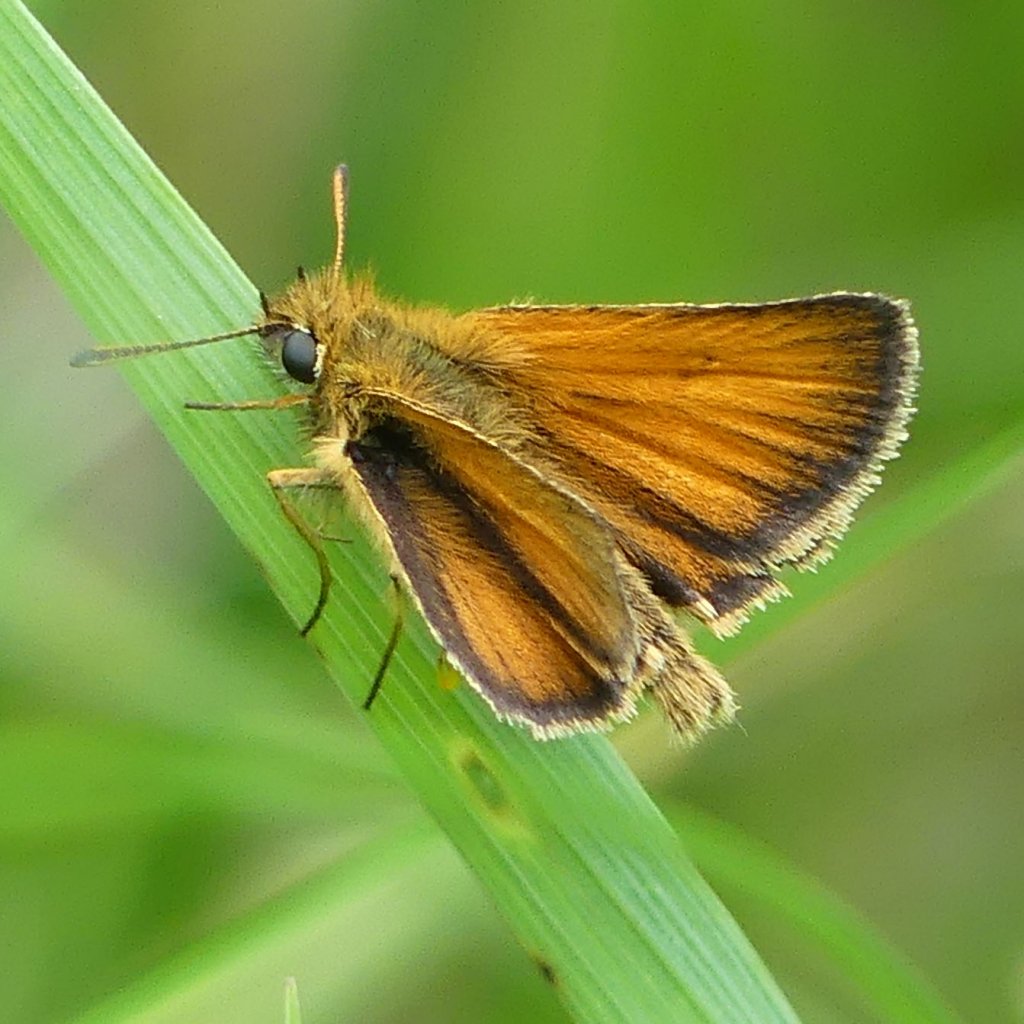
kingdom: Animalia
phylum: Arthropoda
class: Insecta
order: Lepidoptera
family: Hesperiidae
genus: Thymelicus
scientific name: Thymelicus lineola
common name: European Skipper
